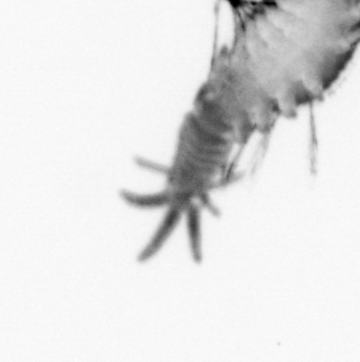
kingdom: Animalia
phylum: Annelida
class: Polychaeta
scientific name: Polychaeta
